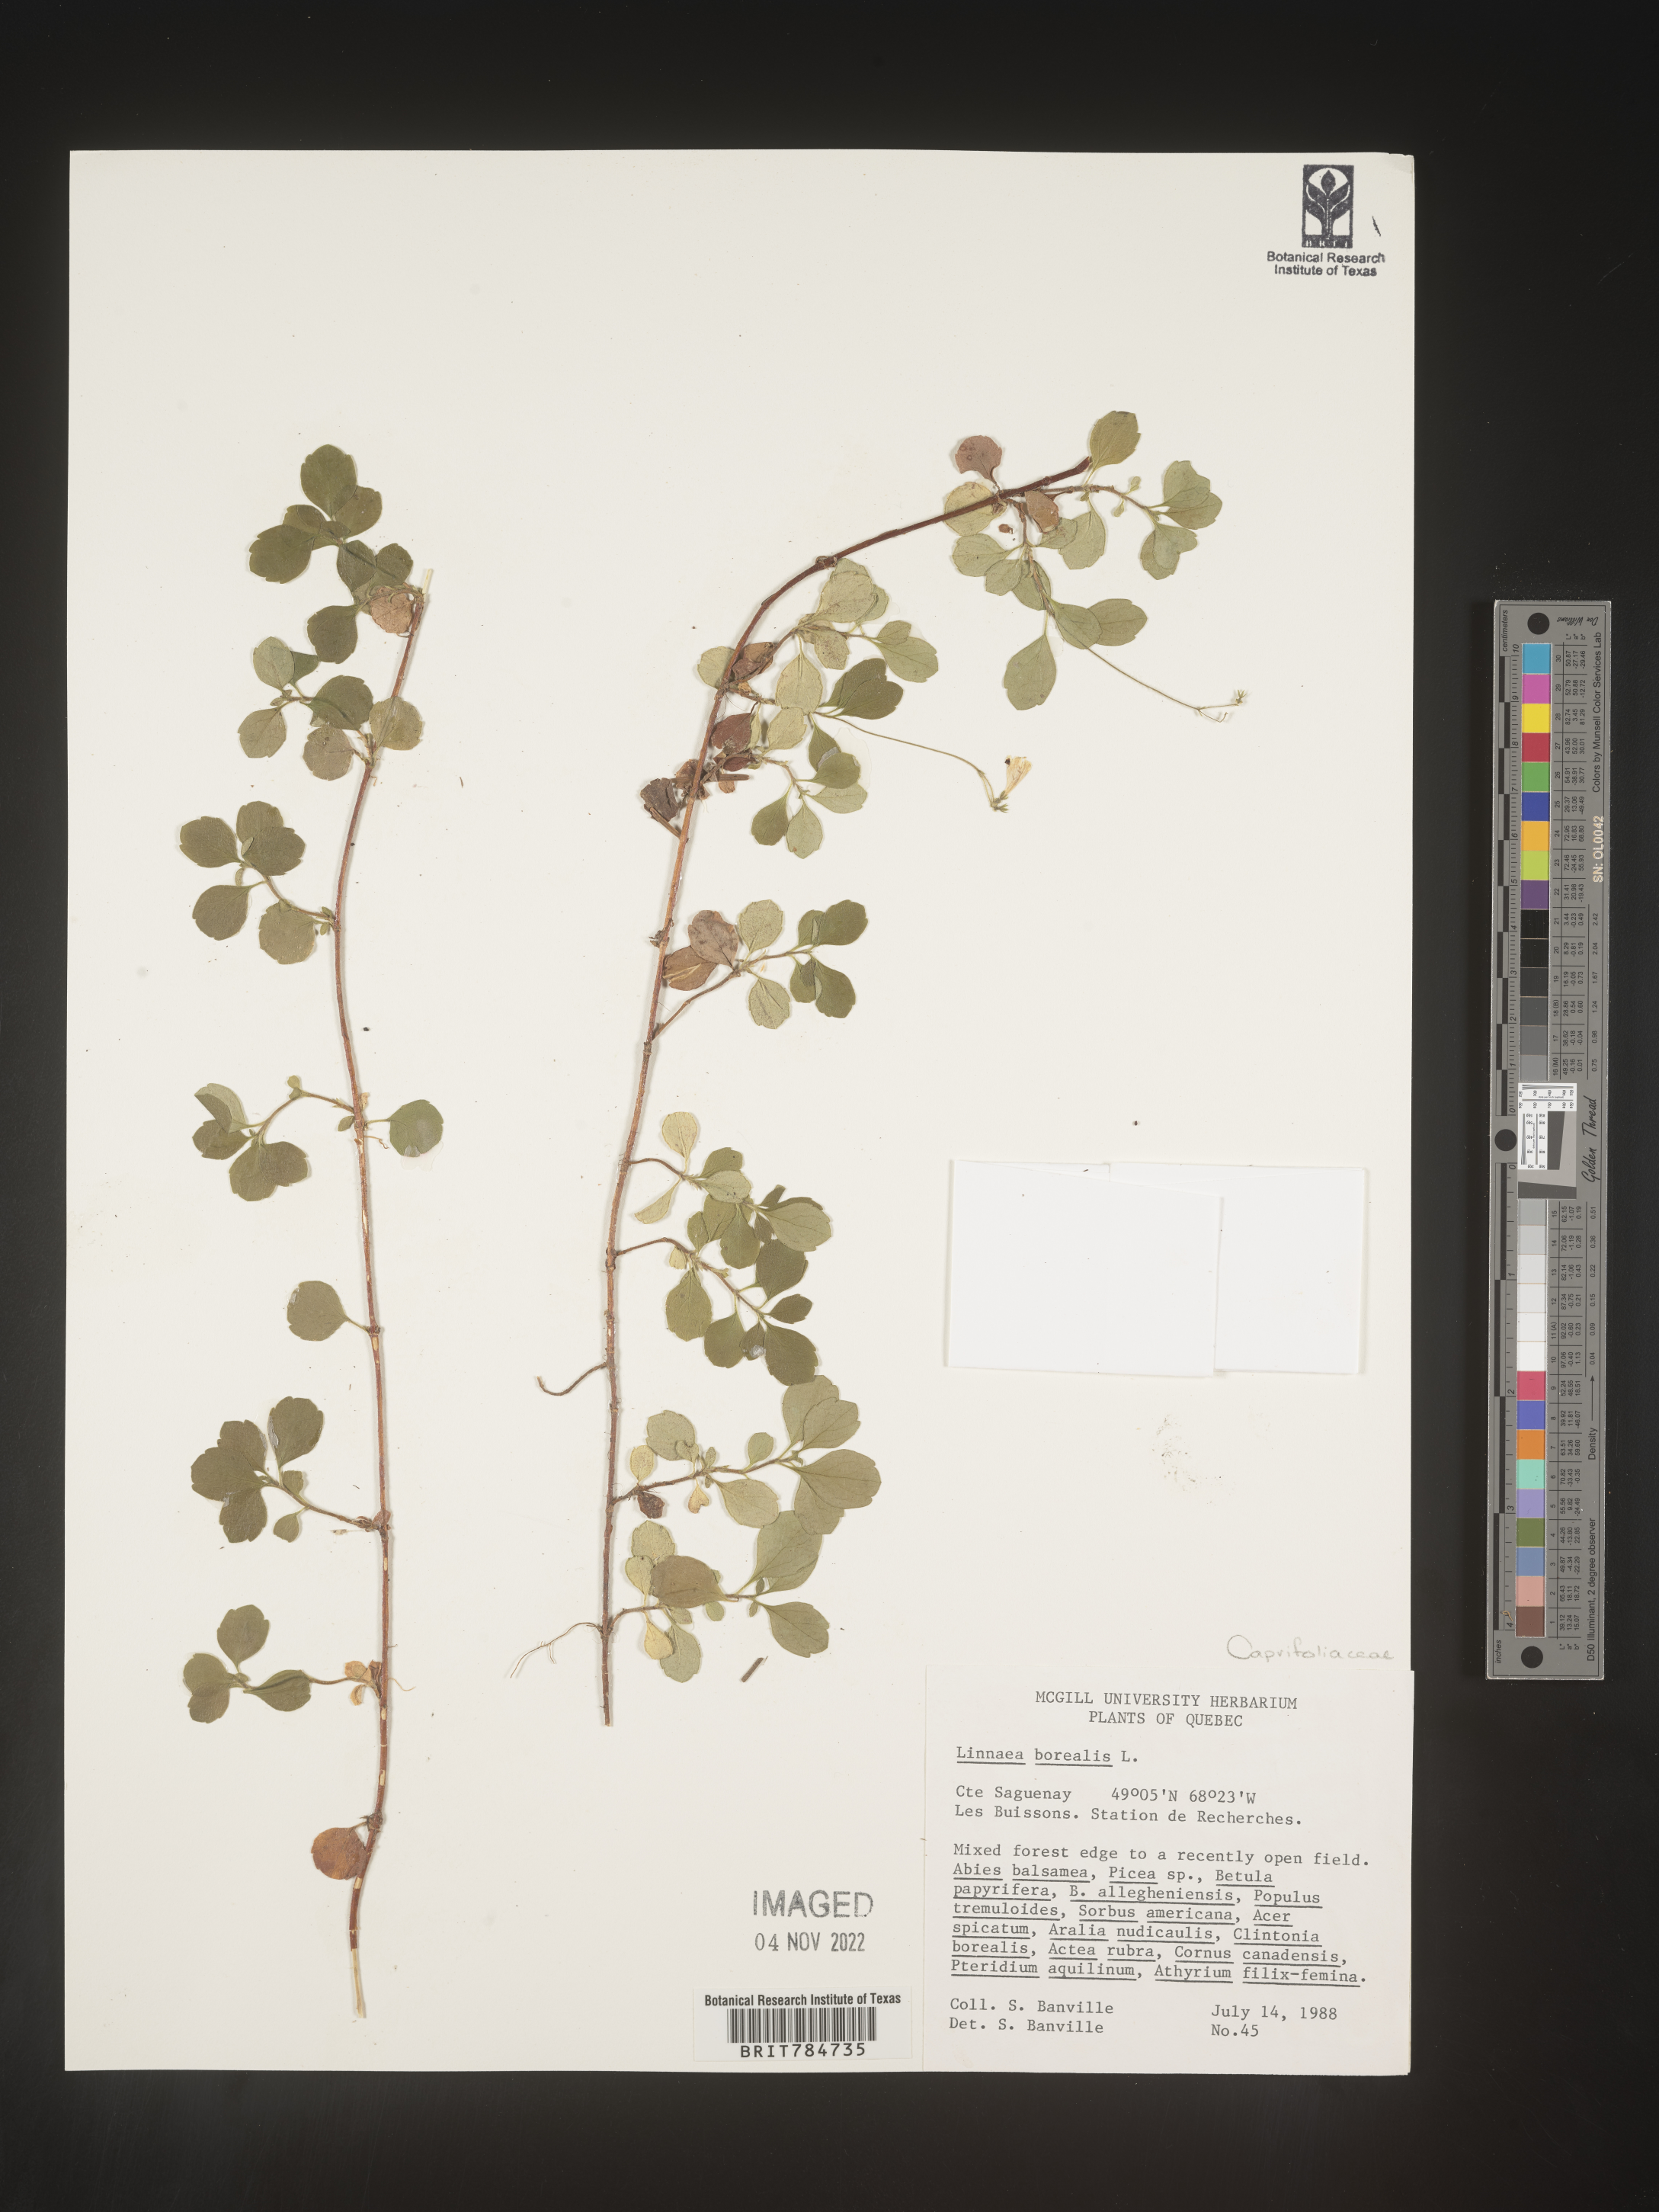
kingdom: Plantae
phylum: Tracheophyta
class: Magnoliopsida
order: Dipsacales
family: Caprifoliaceae
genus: Linnaea
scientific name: Linnaea borealis
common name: Twinflower
